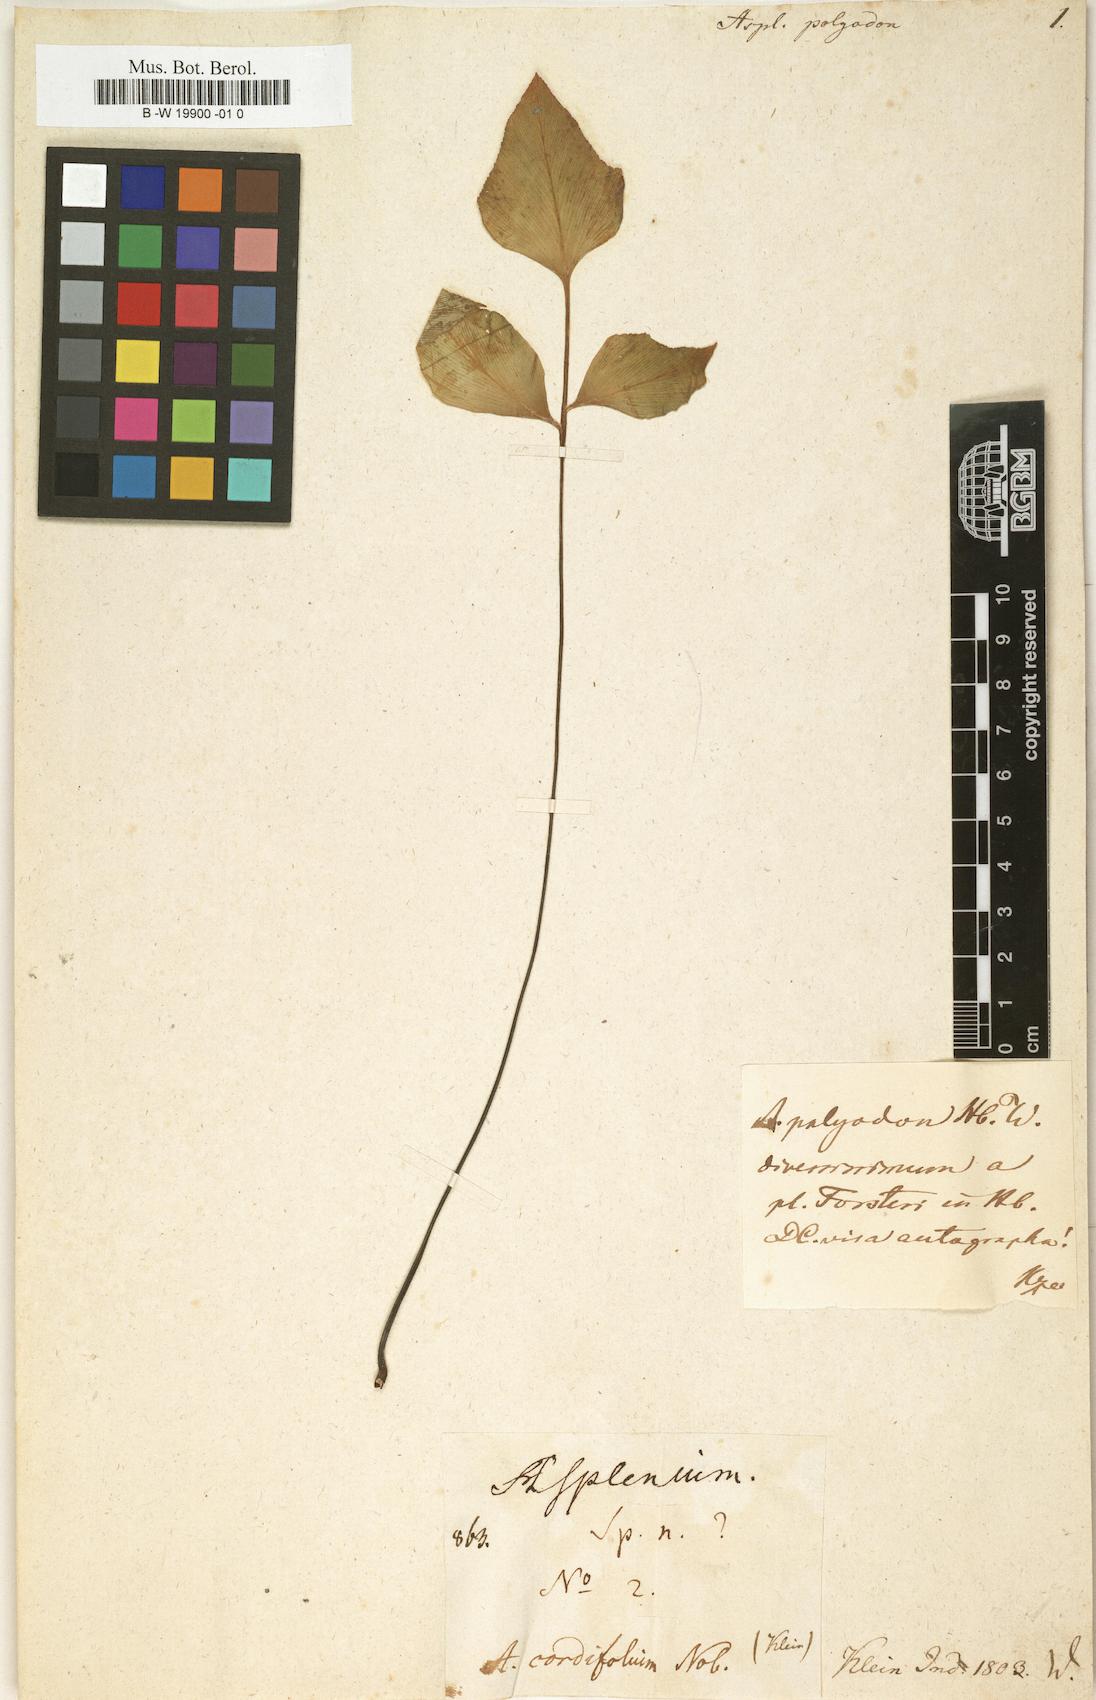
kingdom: Plantae
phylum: Tracheophyta
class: Polypodiopsida
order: Polypodiales
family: Aspleniaceae
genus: Asplenium
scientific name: Asplenium polyodon
